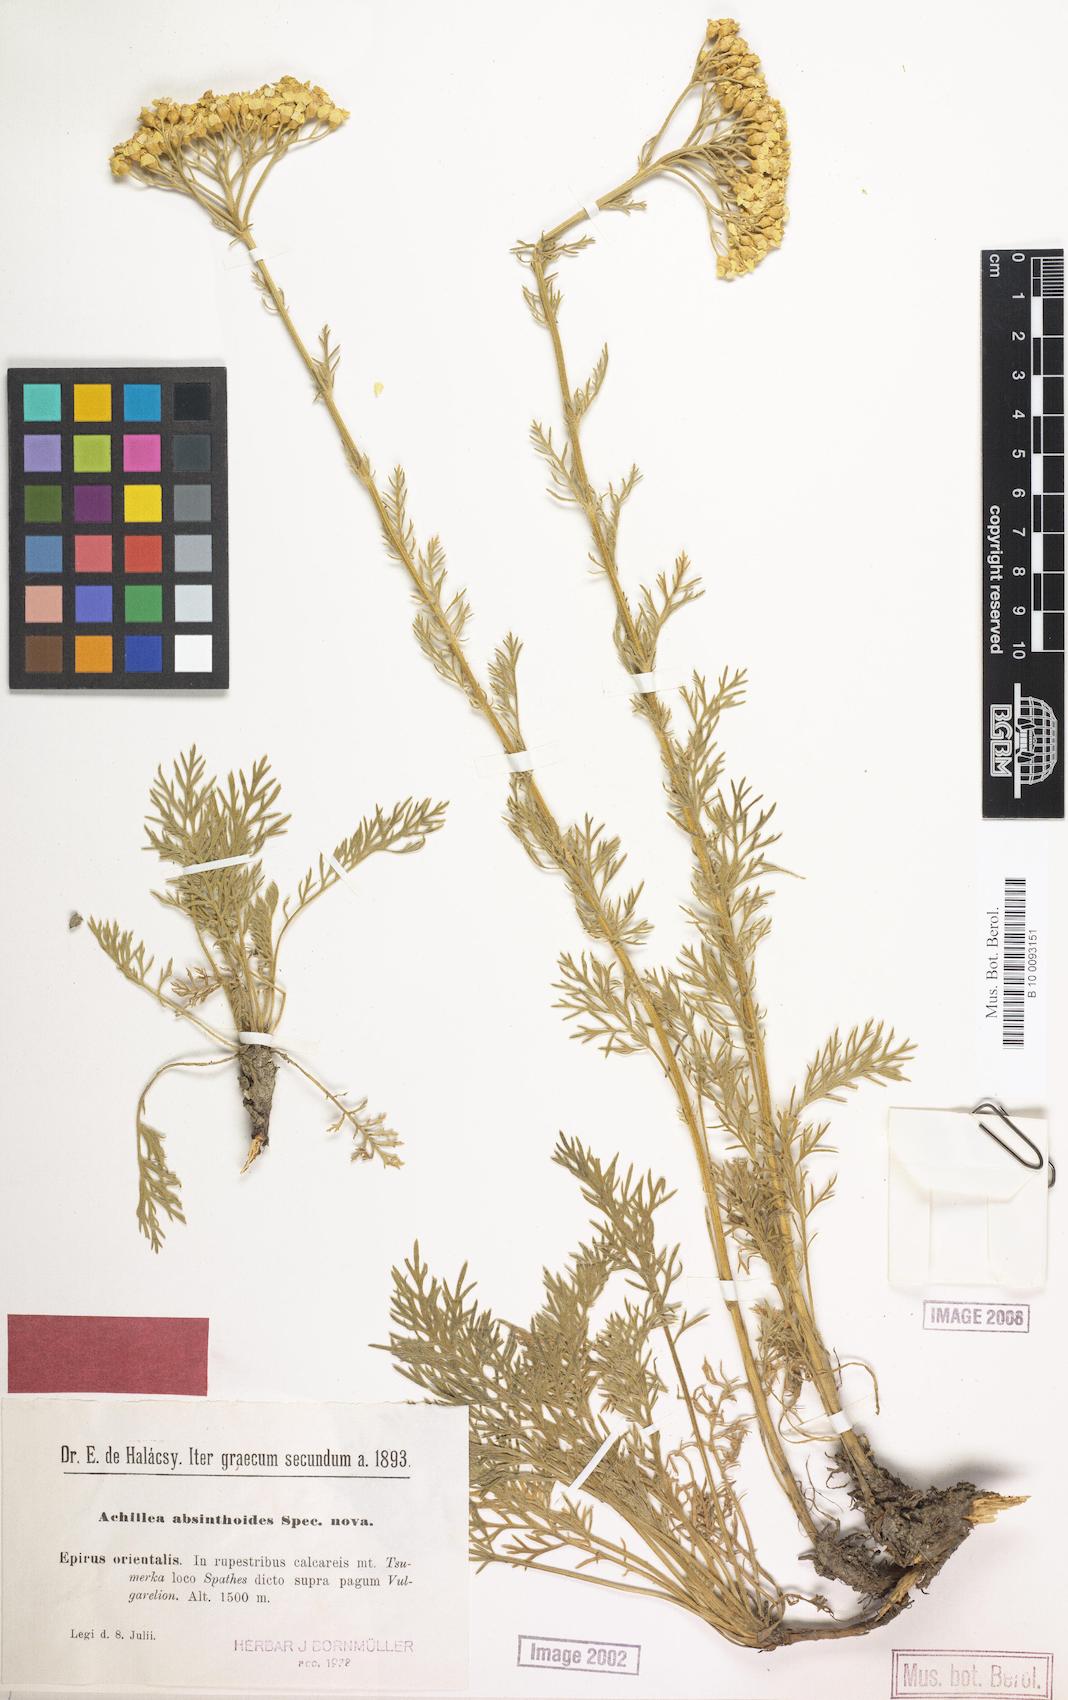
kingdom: Plantae
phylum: Tracheophyta
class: Magnoliopsida
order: Asterales
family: Asteraceae
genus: Achillea
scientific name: Achillea absinthoides
